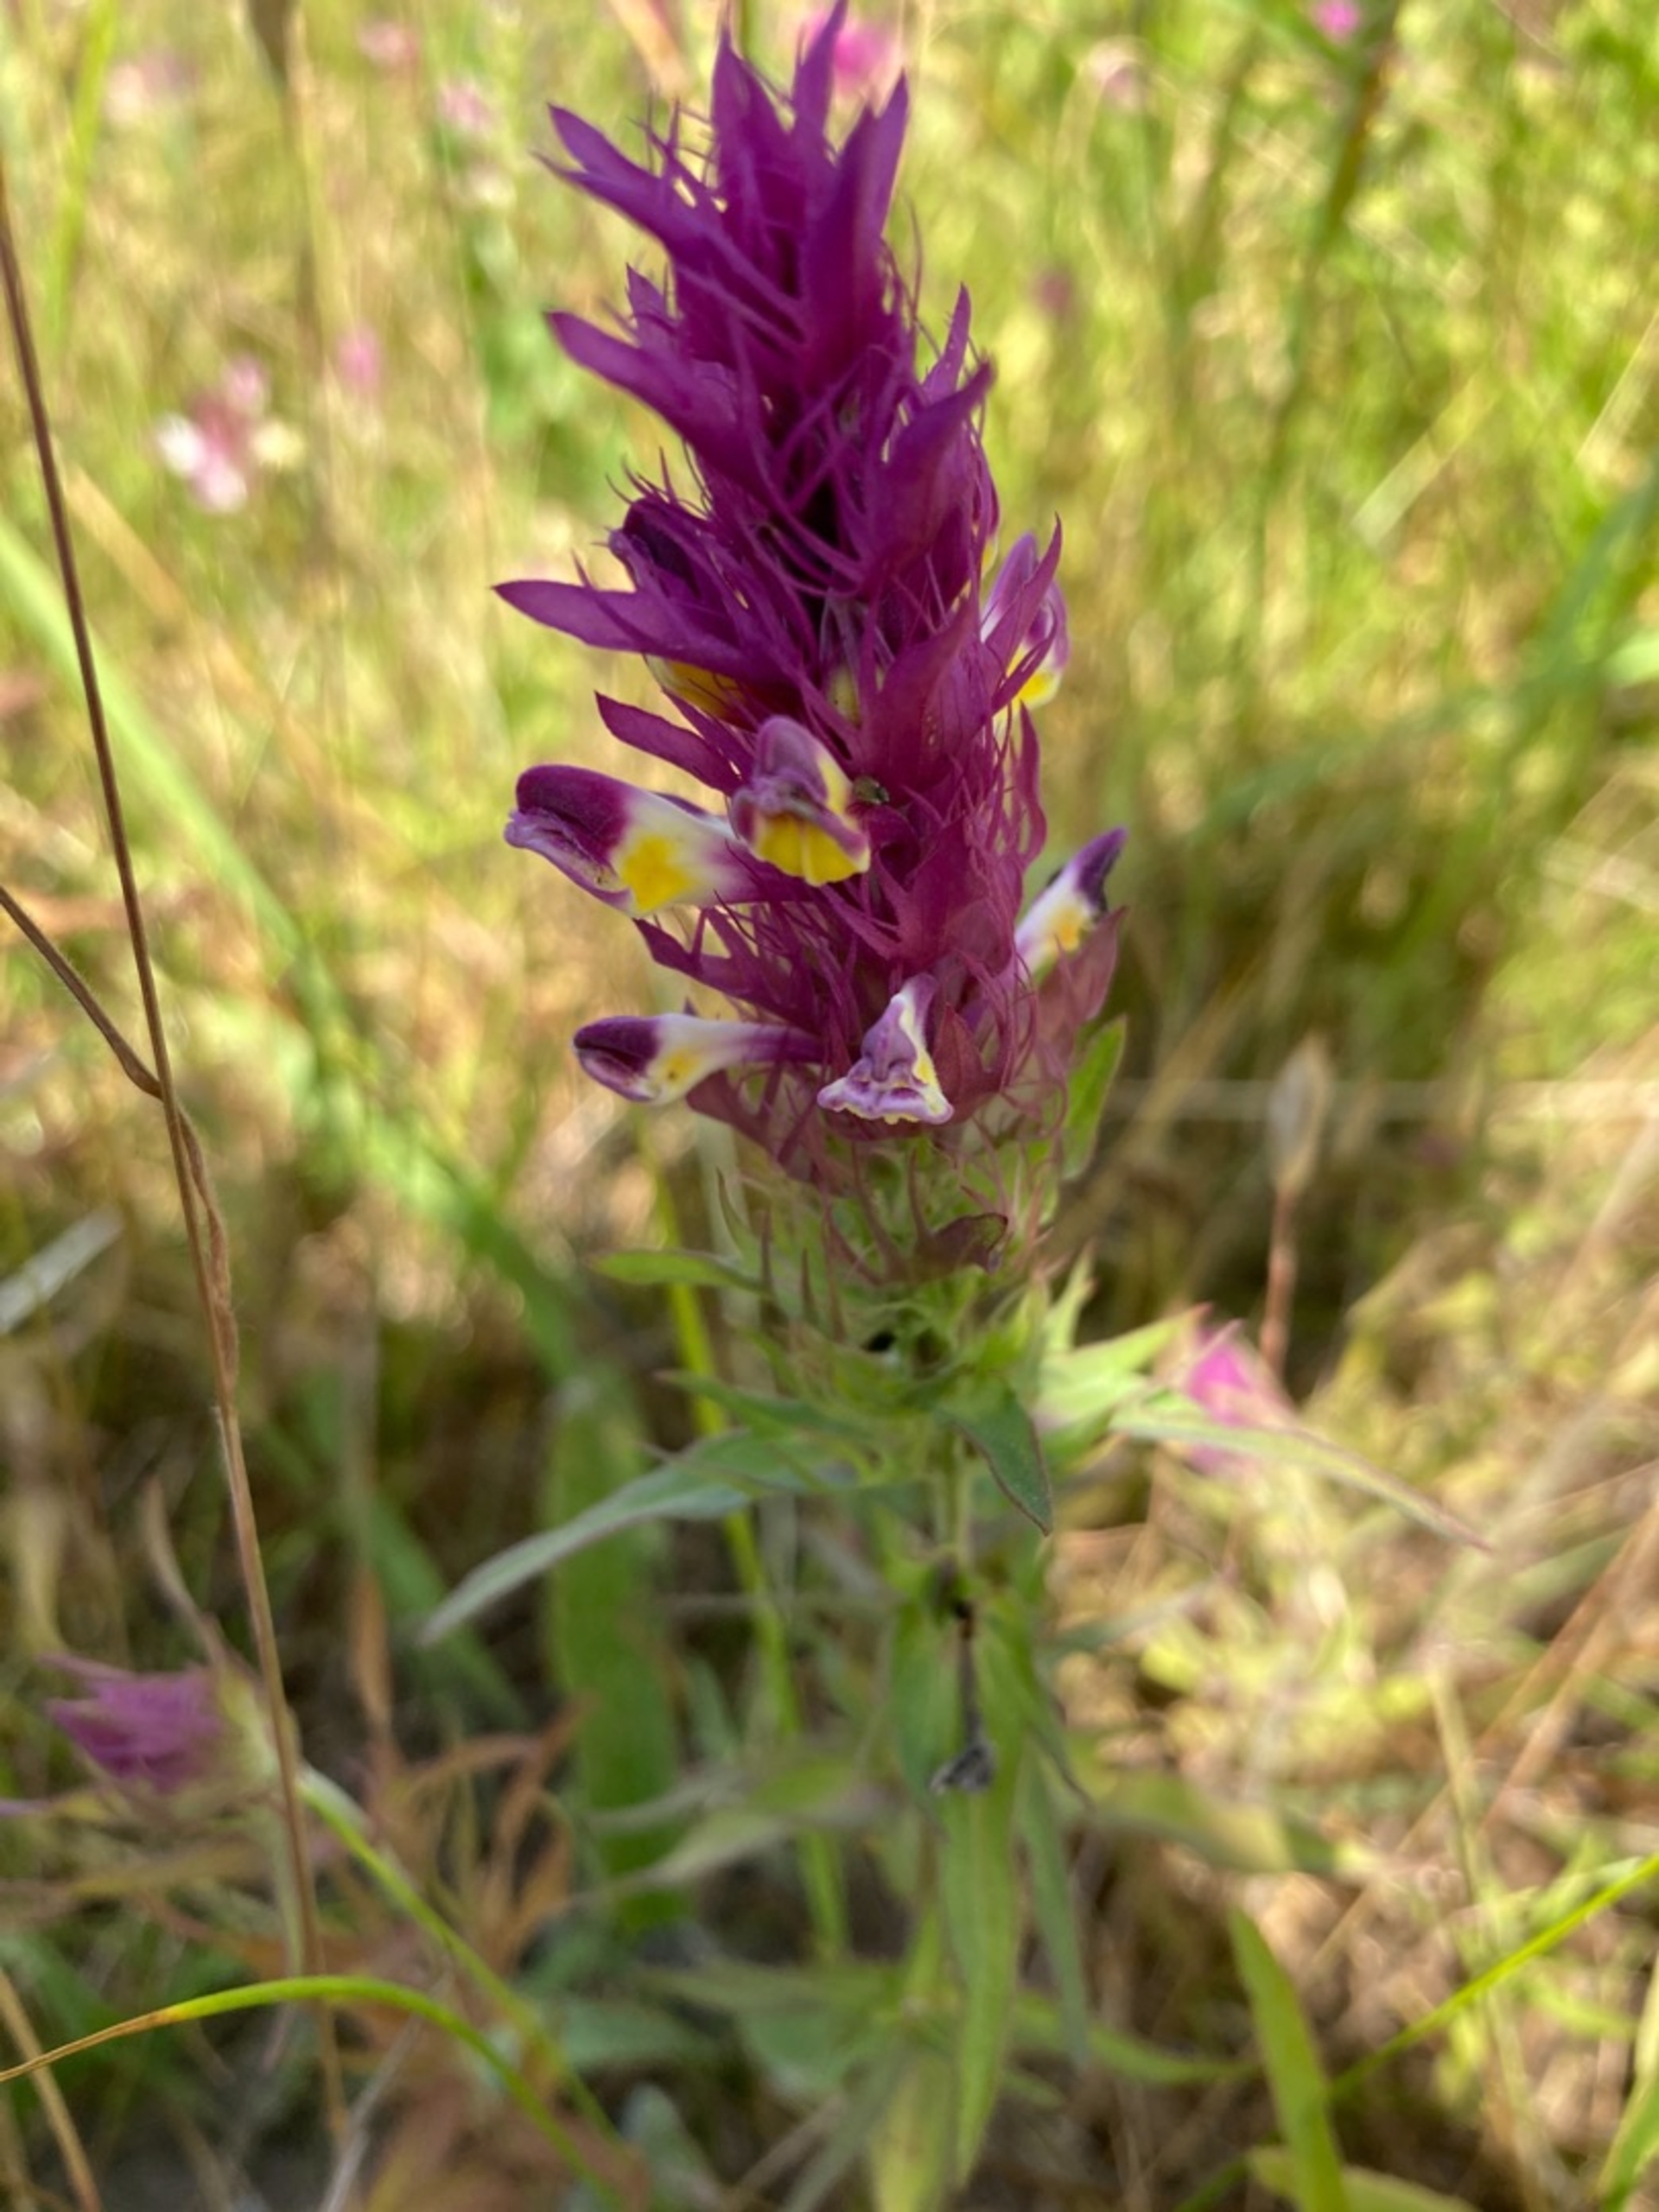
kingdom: Plantae
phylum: Tracheophyta
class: Magnoliopsida
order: Lamiales
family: Orobanchaceae
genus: Melampyrum
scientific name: Melampyrum arvense
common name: Ager-kohvede
